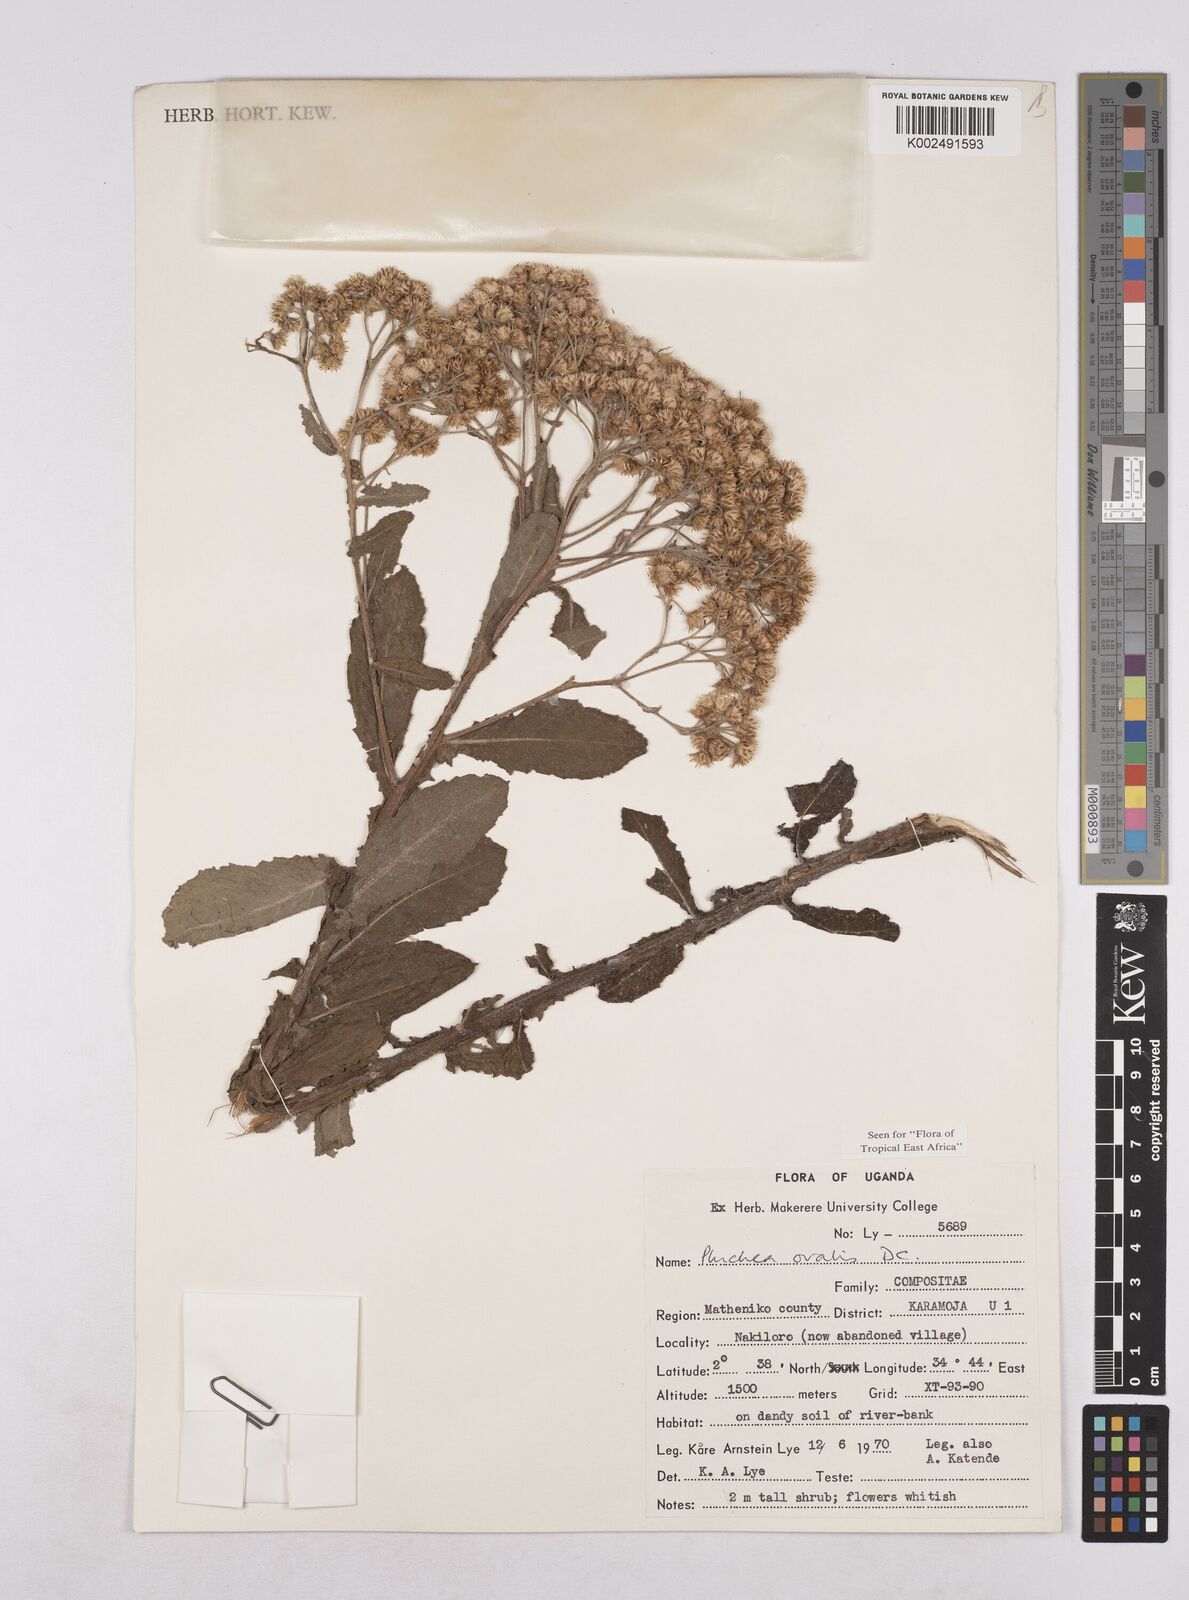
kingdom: Plantae
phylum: Tracheophyta
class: Magnoliopsida
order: Asterales
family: Asteraceae
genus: Pluchea
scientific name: Pluchea ovalis
